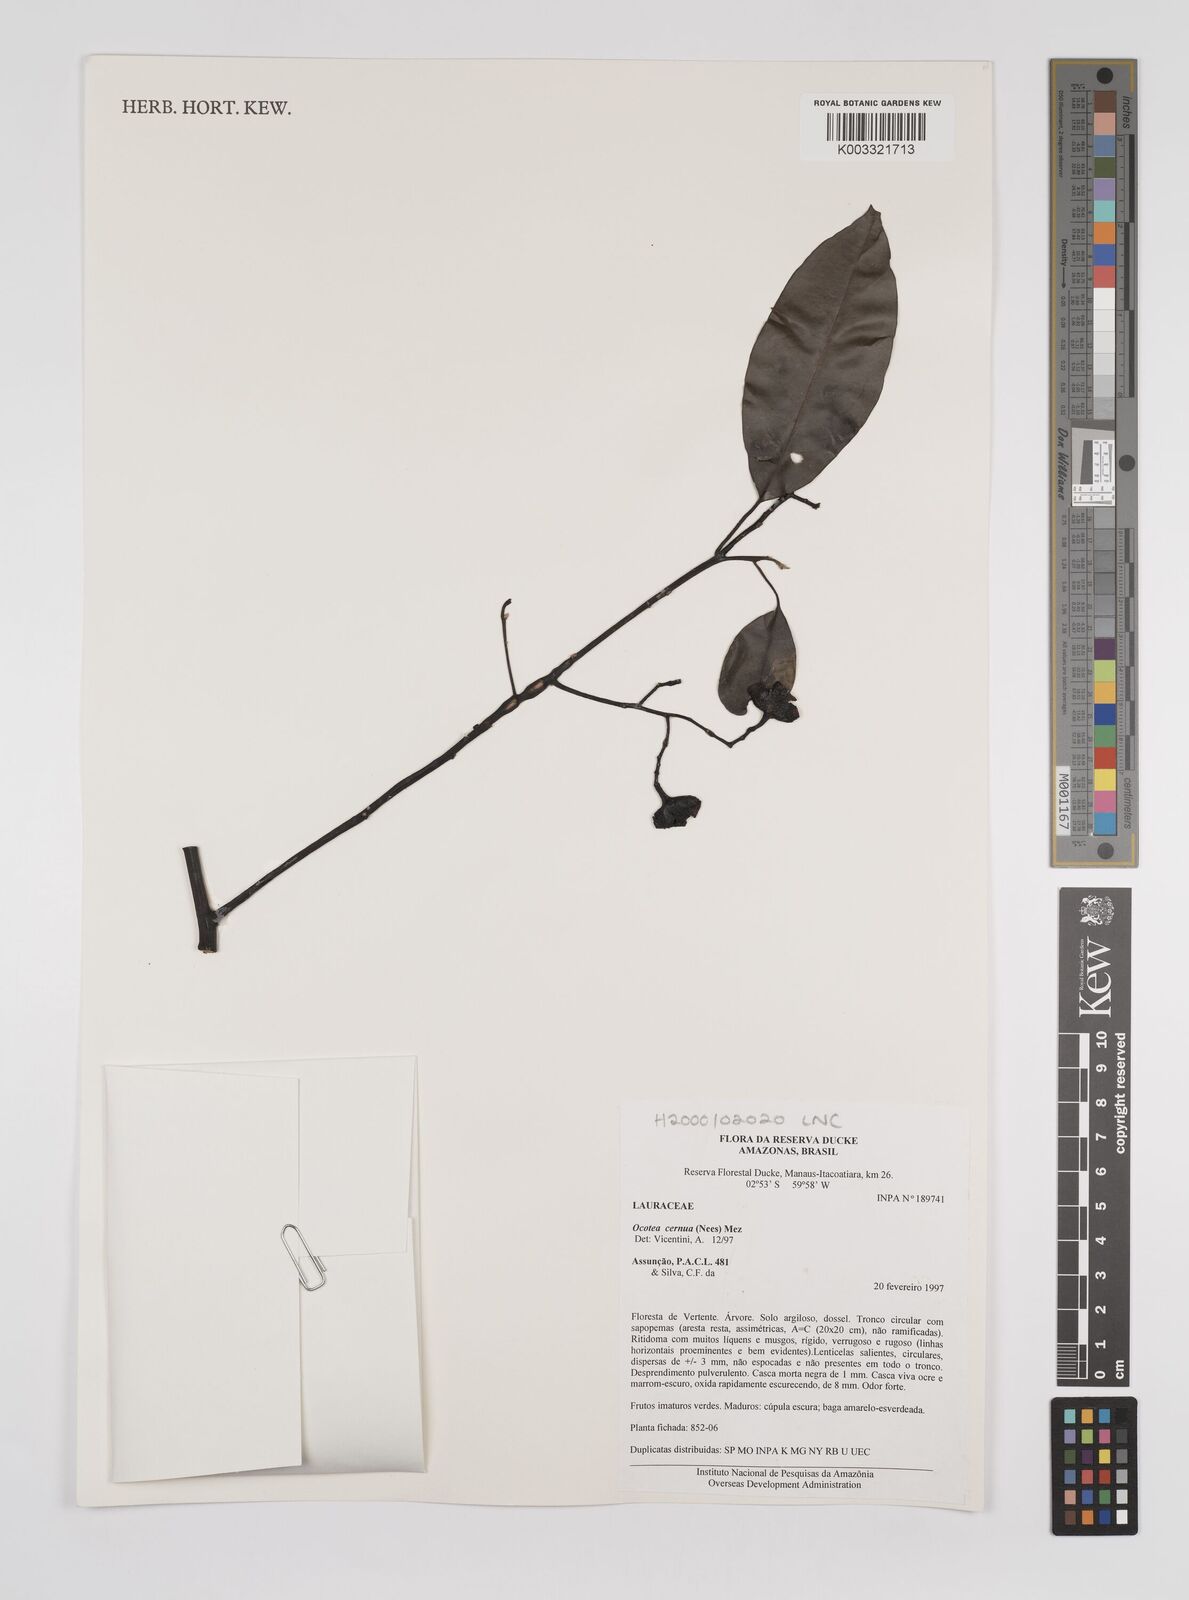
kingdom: Plantae
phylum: Tracheophyta
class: Magnoliopsida
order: Laurales
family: Lauraceae
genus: Ocotea
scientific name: Ocotea leptobotra
